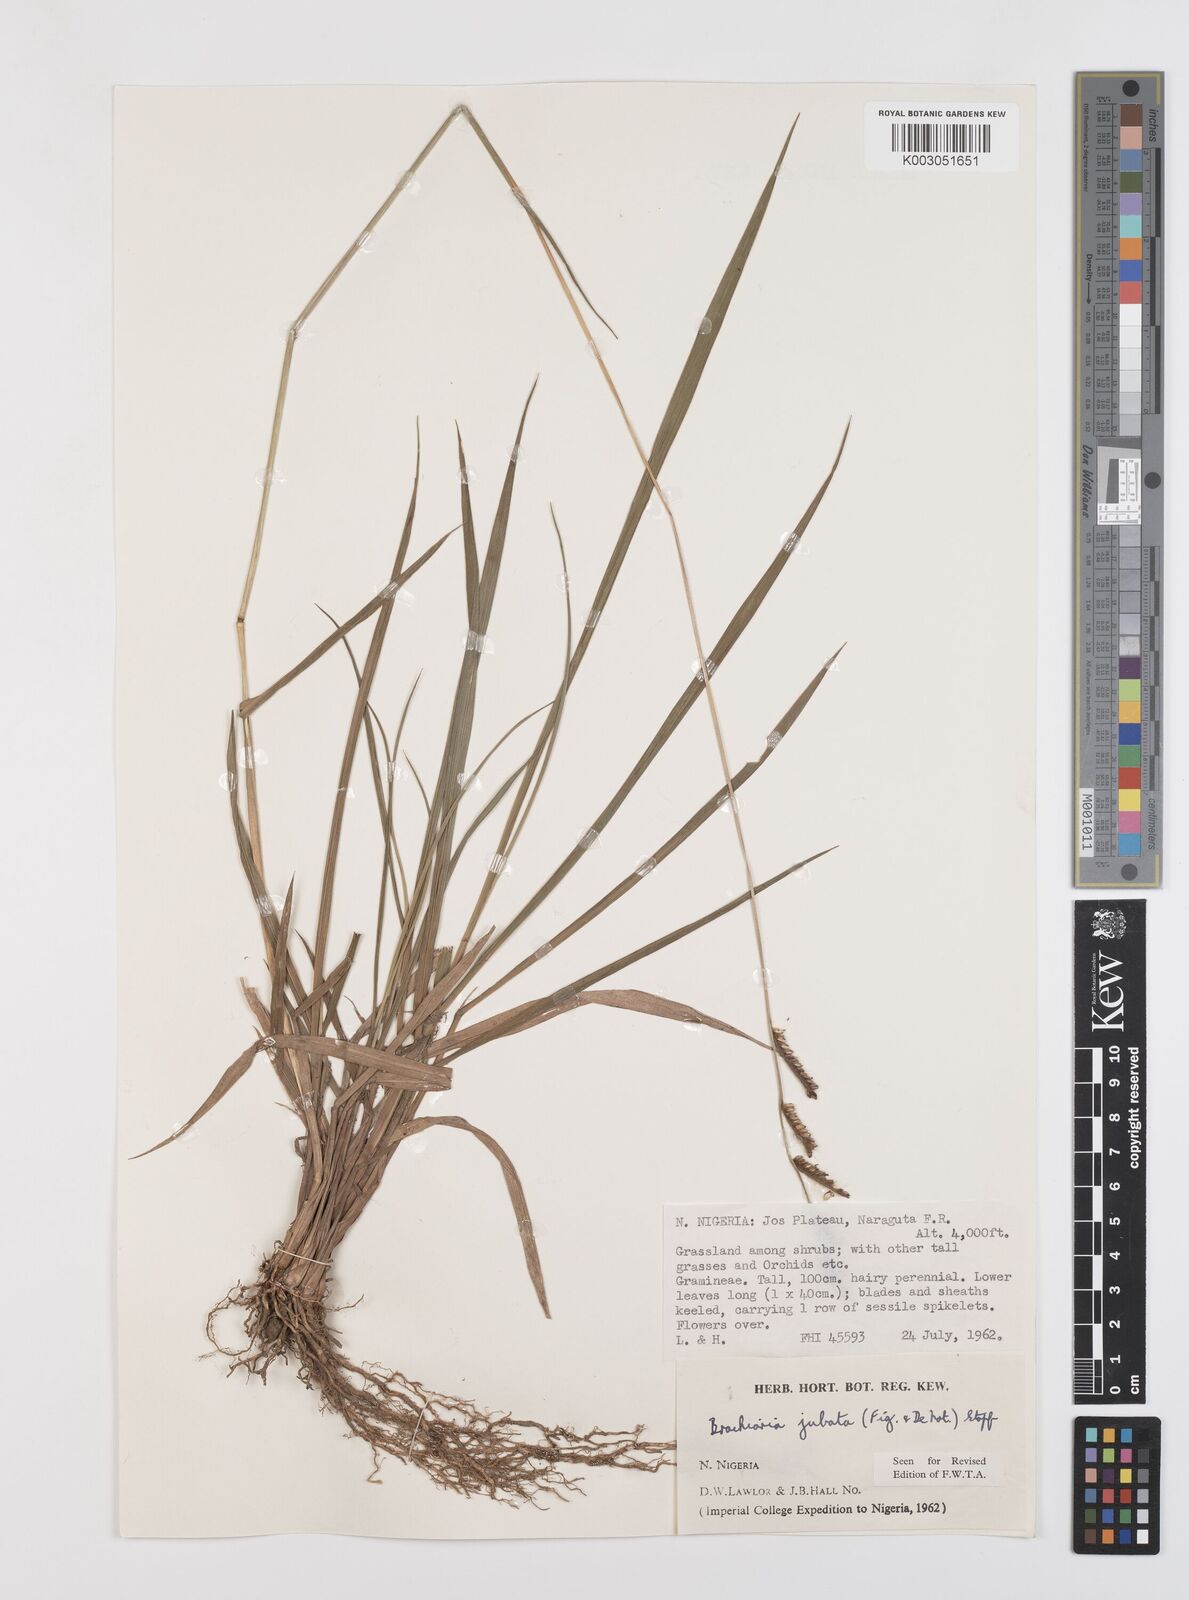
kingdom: Plantae
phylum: Tracheophyta
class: Liliopsida
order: Poales
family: Poaceae
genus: Urochloa
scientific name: Urochloa jubata
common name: Buffalograss
